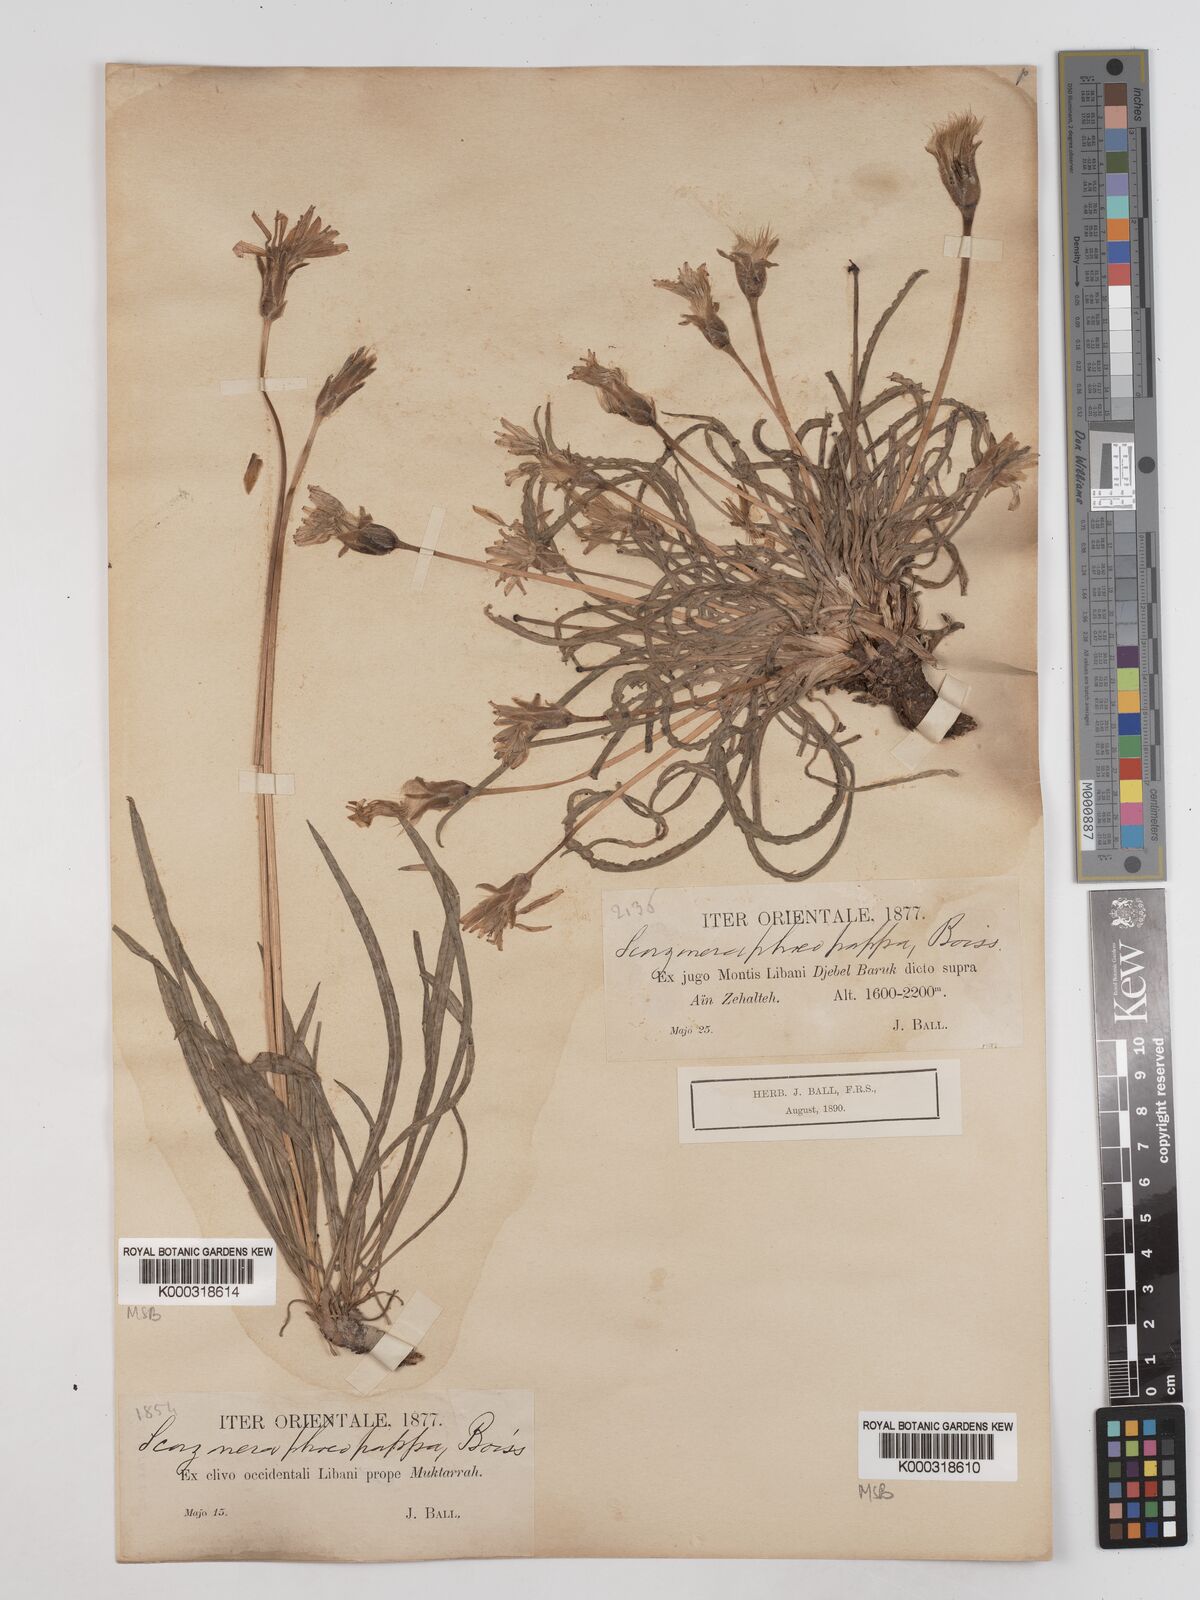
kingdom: Plantae
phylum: Tracheophyta
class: Magnoliopsida
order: Asterales
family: Asteraceae
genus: Pseudopodospermum
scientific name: Pseudopodospermum phaeopappum
